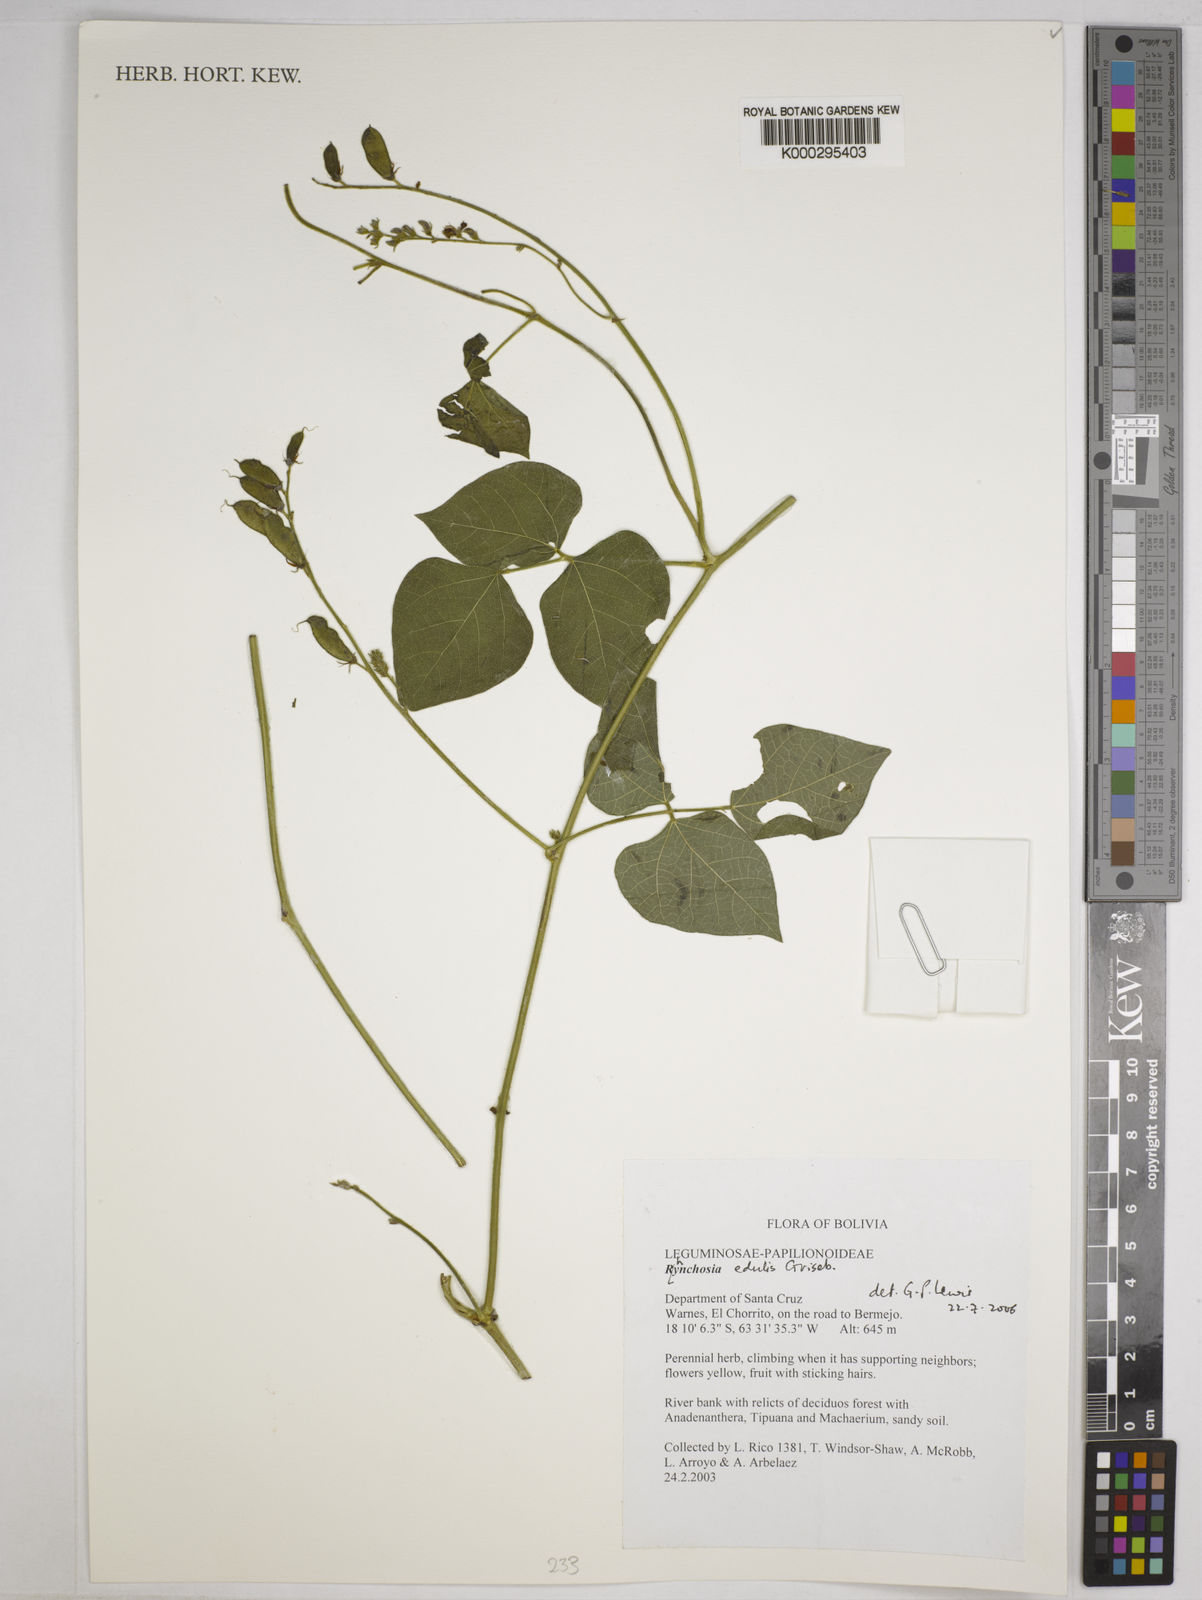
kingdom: Plantae
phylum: Tracheophyta
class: Magnoliopsida
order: Fabales
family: Fabaceae
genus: Rhynchosia
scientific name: Rhynchosia edulis
